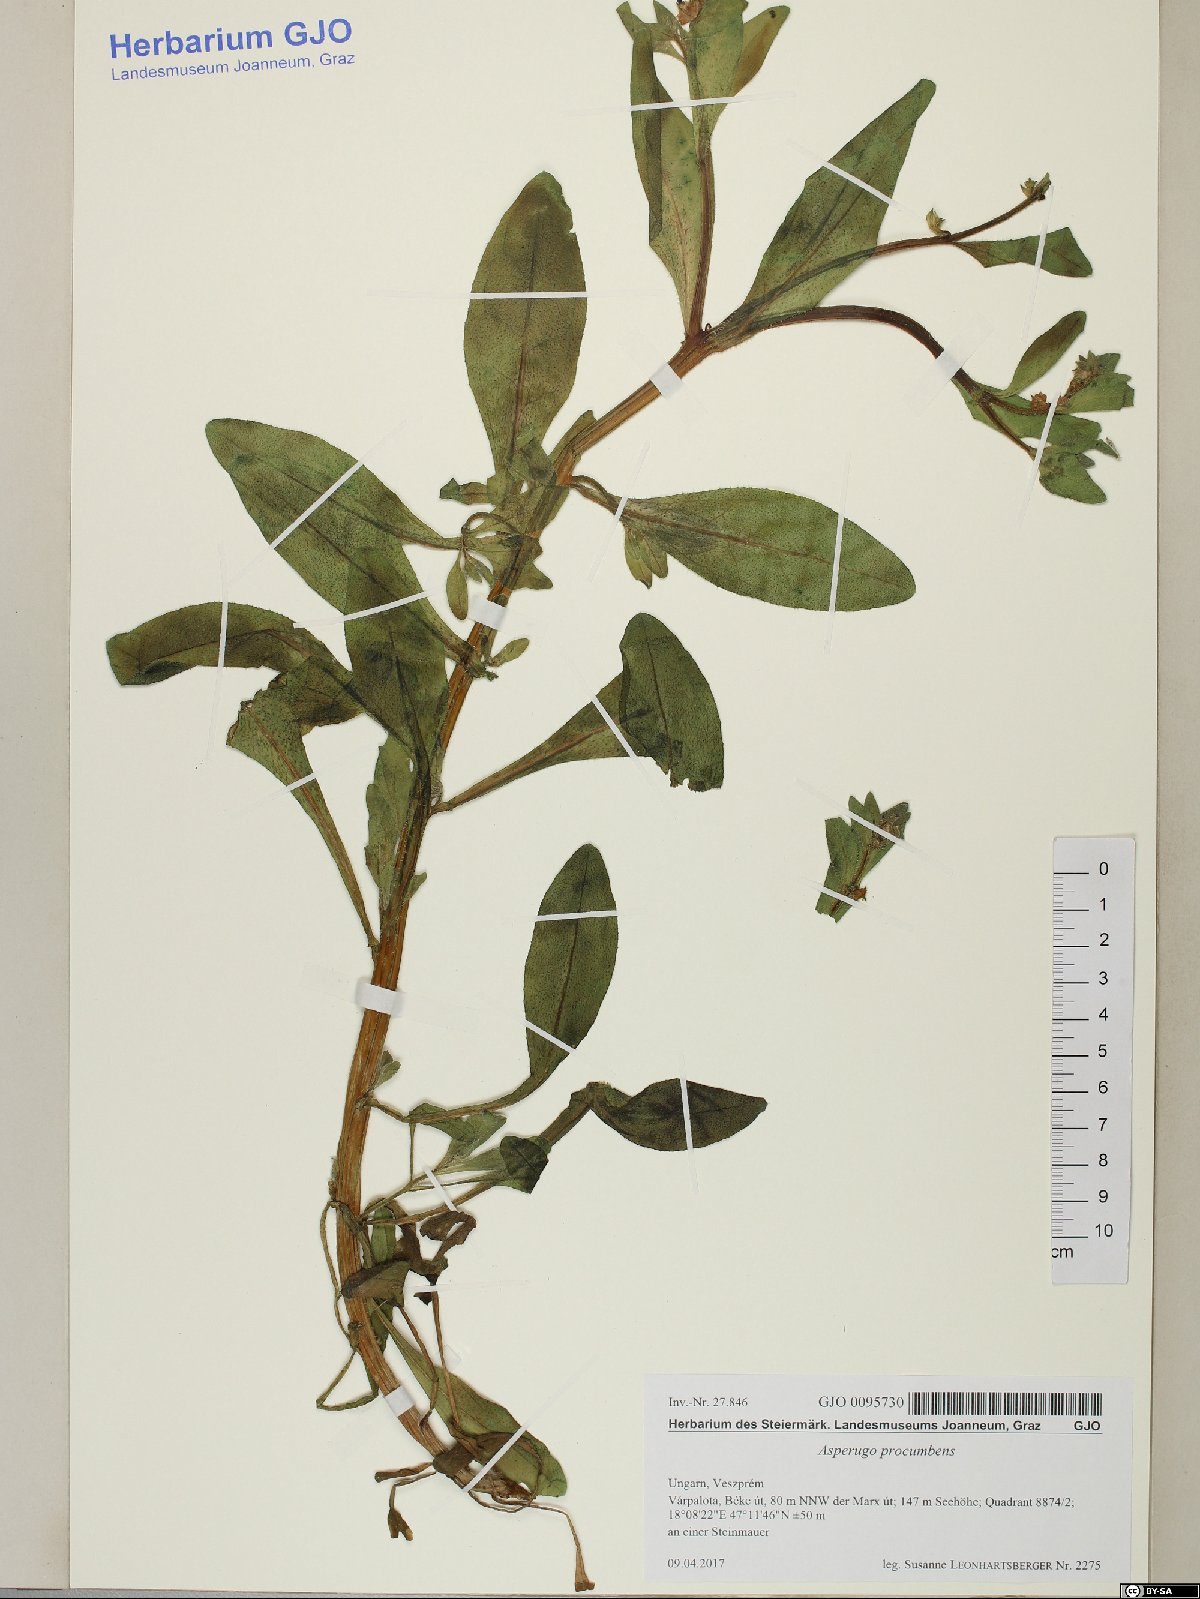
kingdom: Plantae
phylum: Tracheophyta
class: Magnoliopsida
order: Boraginales
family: Boraginaceae
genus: Asperugo
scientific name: Asperugo procumbens
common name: Madwort
